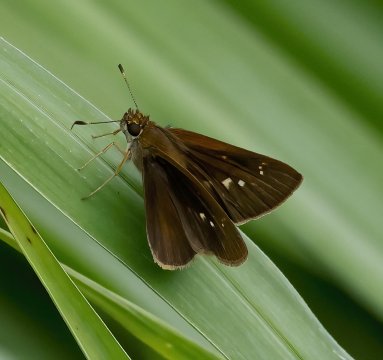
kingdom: Animalia
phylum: Arthropoda
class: Insecta
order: Lepidoptera
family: Hesperiidae
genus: Euphyes
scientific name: Euphyes vestris
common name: Dun Skipper
